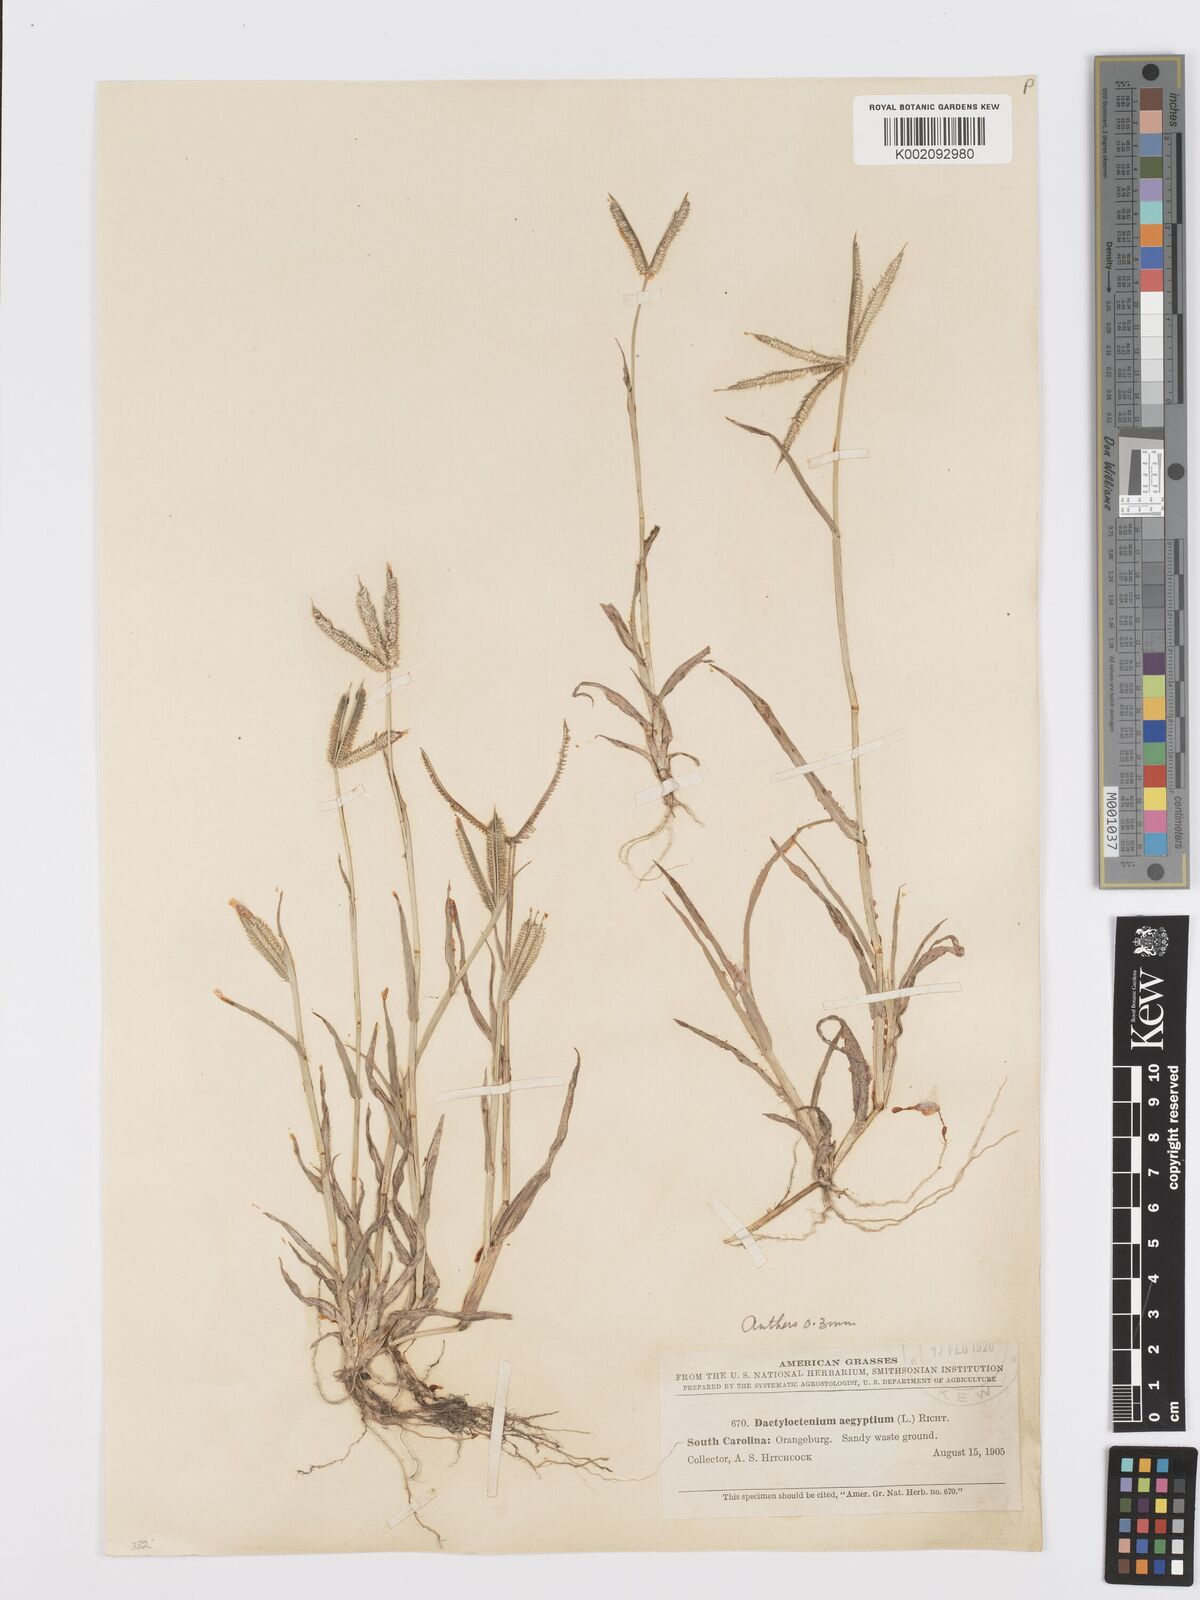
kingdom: Plantae
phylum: Tracheophyta
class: Liliopsida
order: Poales
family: Poaceae
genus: Dactyloctenium
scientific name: Dactyloctenium aegyptium
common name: Egyptian grass
